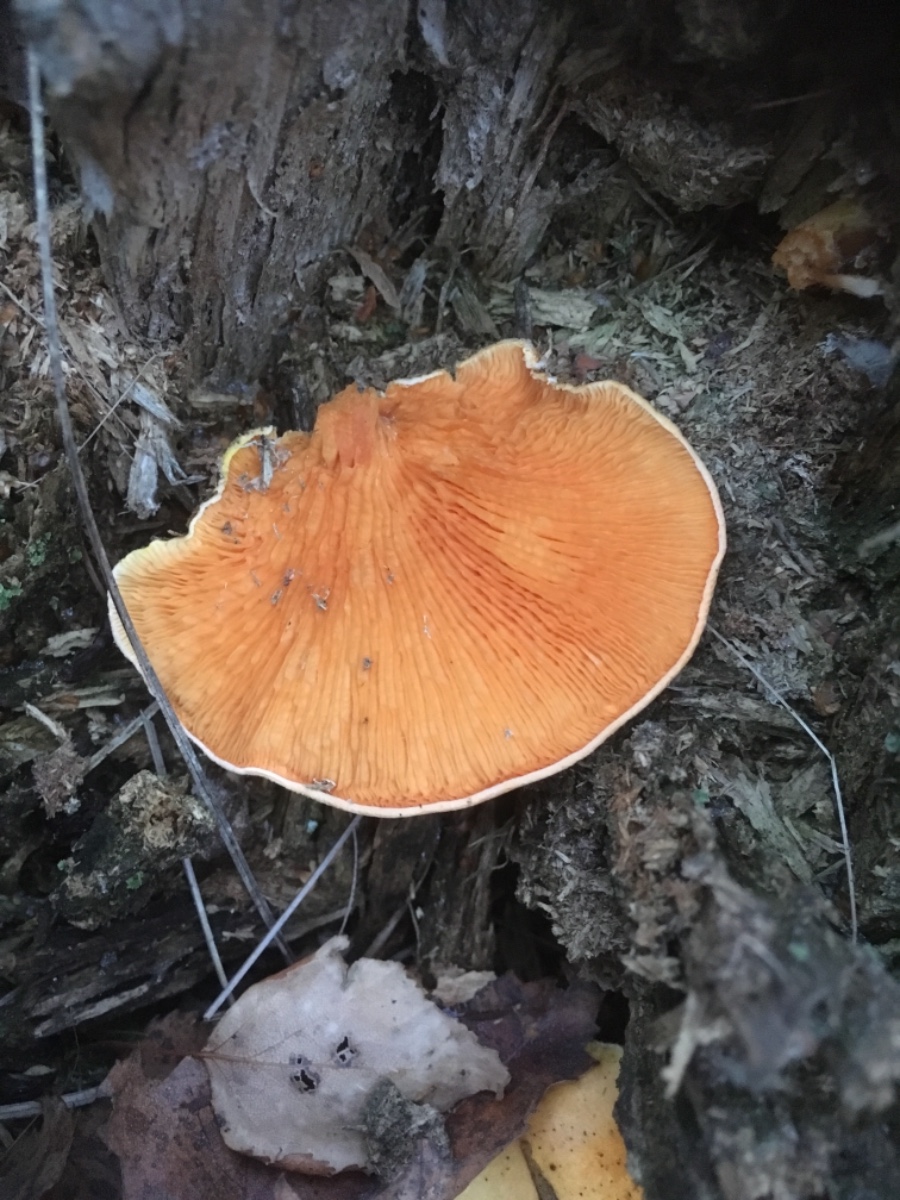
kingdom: Fungi
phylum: Basidiomycota
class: Agaricomycetes
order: Boletales
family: Tapinellaceae
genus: Tapinella
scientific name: Tapinella panuoides
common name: tømmer-viftesvamp
